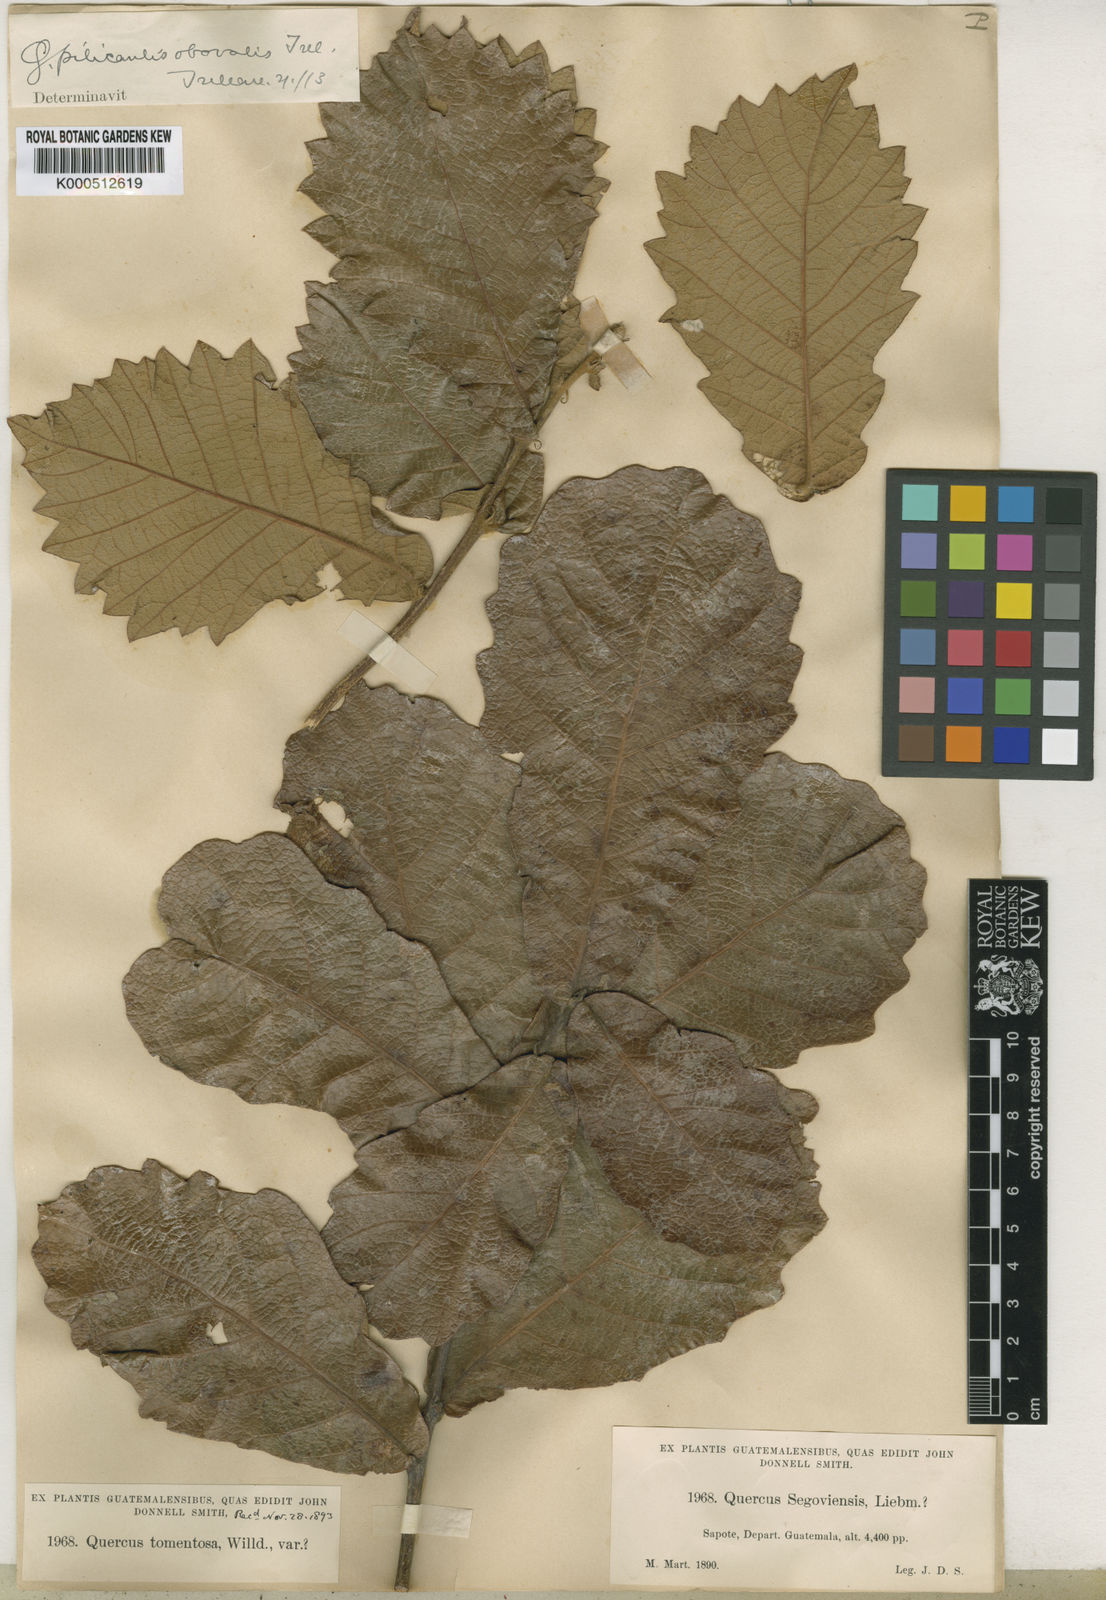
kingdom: Plantae
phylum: Tracheophyta
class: Magnoliopsida
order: Fagales
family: Fagaceae
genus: Quercus
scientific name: Quercus peduncularis
